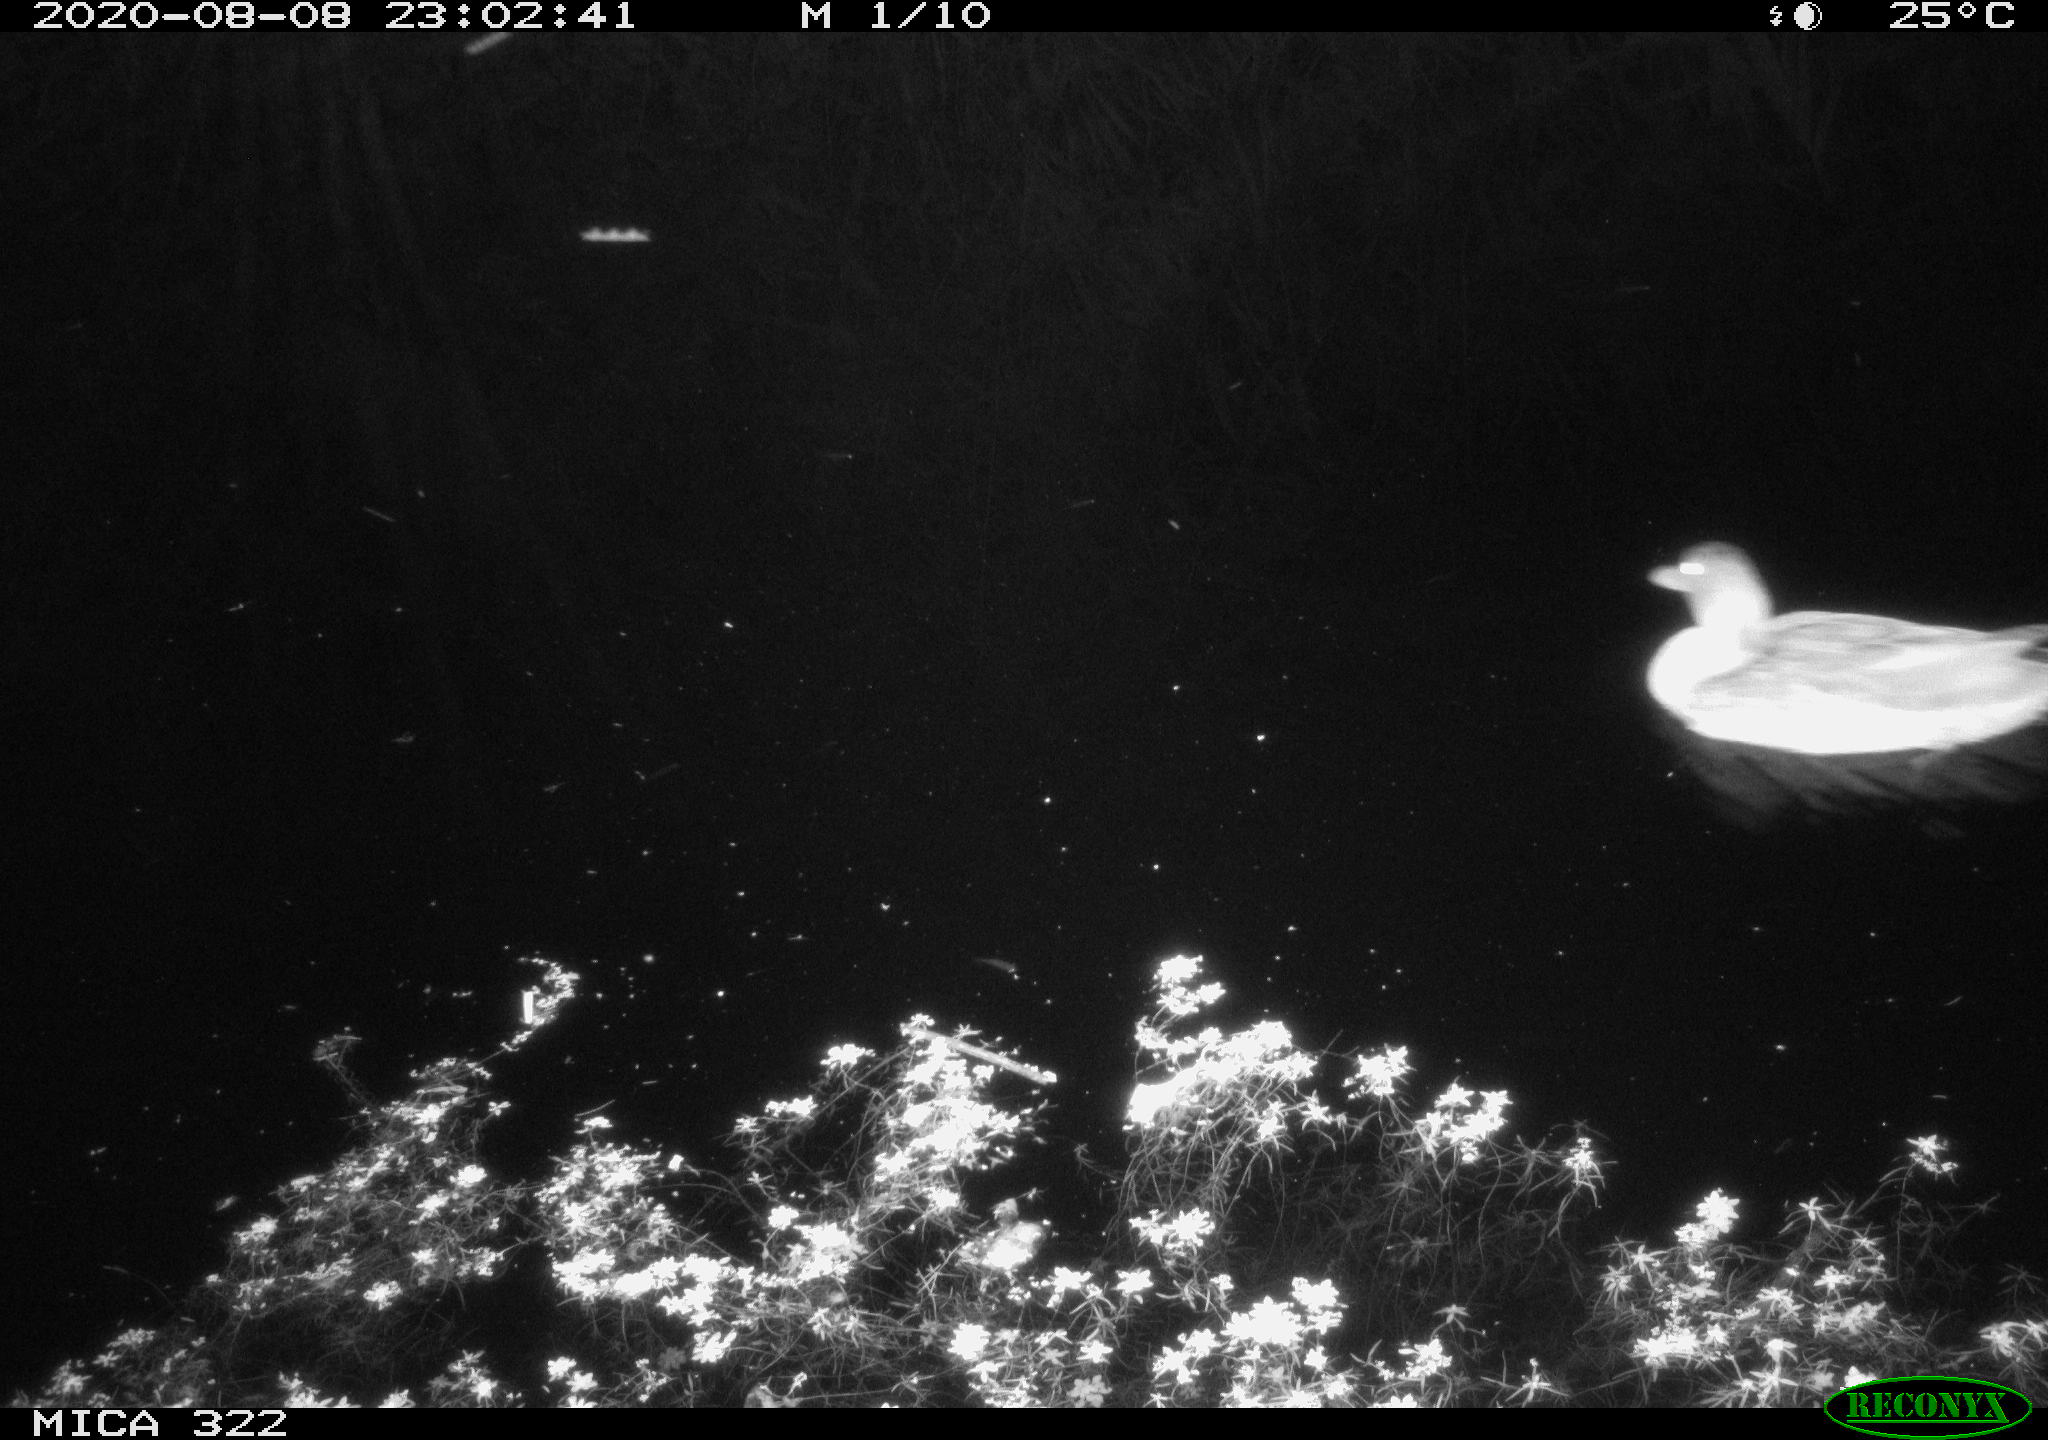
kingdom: Animalia
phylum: Chordata
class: Aves
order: Anseriformes
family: Anatidae
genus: Anas
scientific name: Anas platyrhynchos
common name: Mallard
